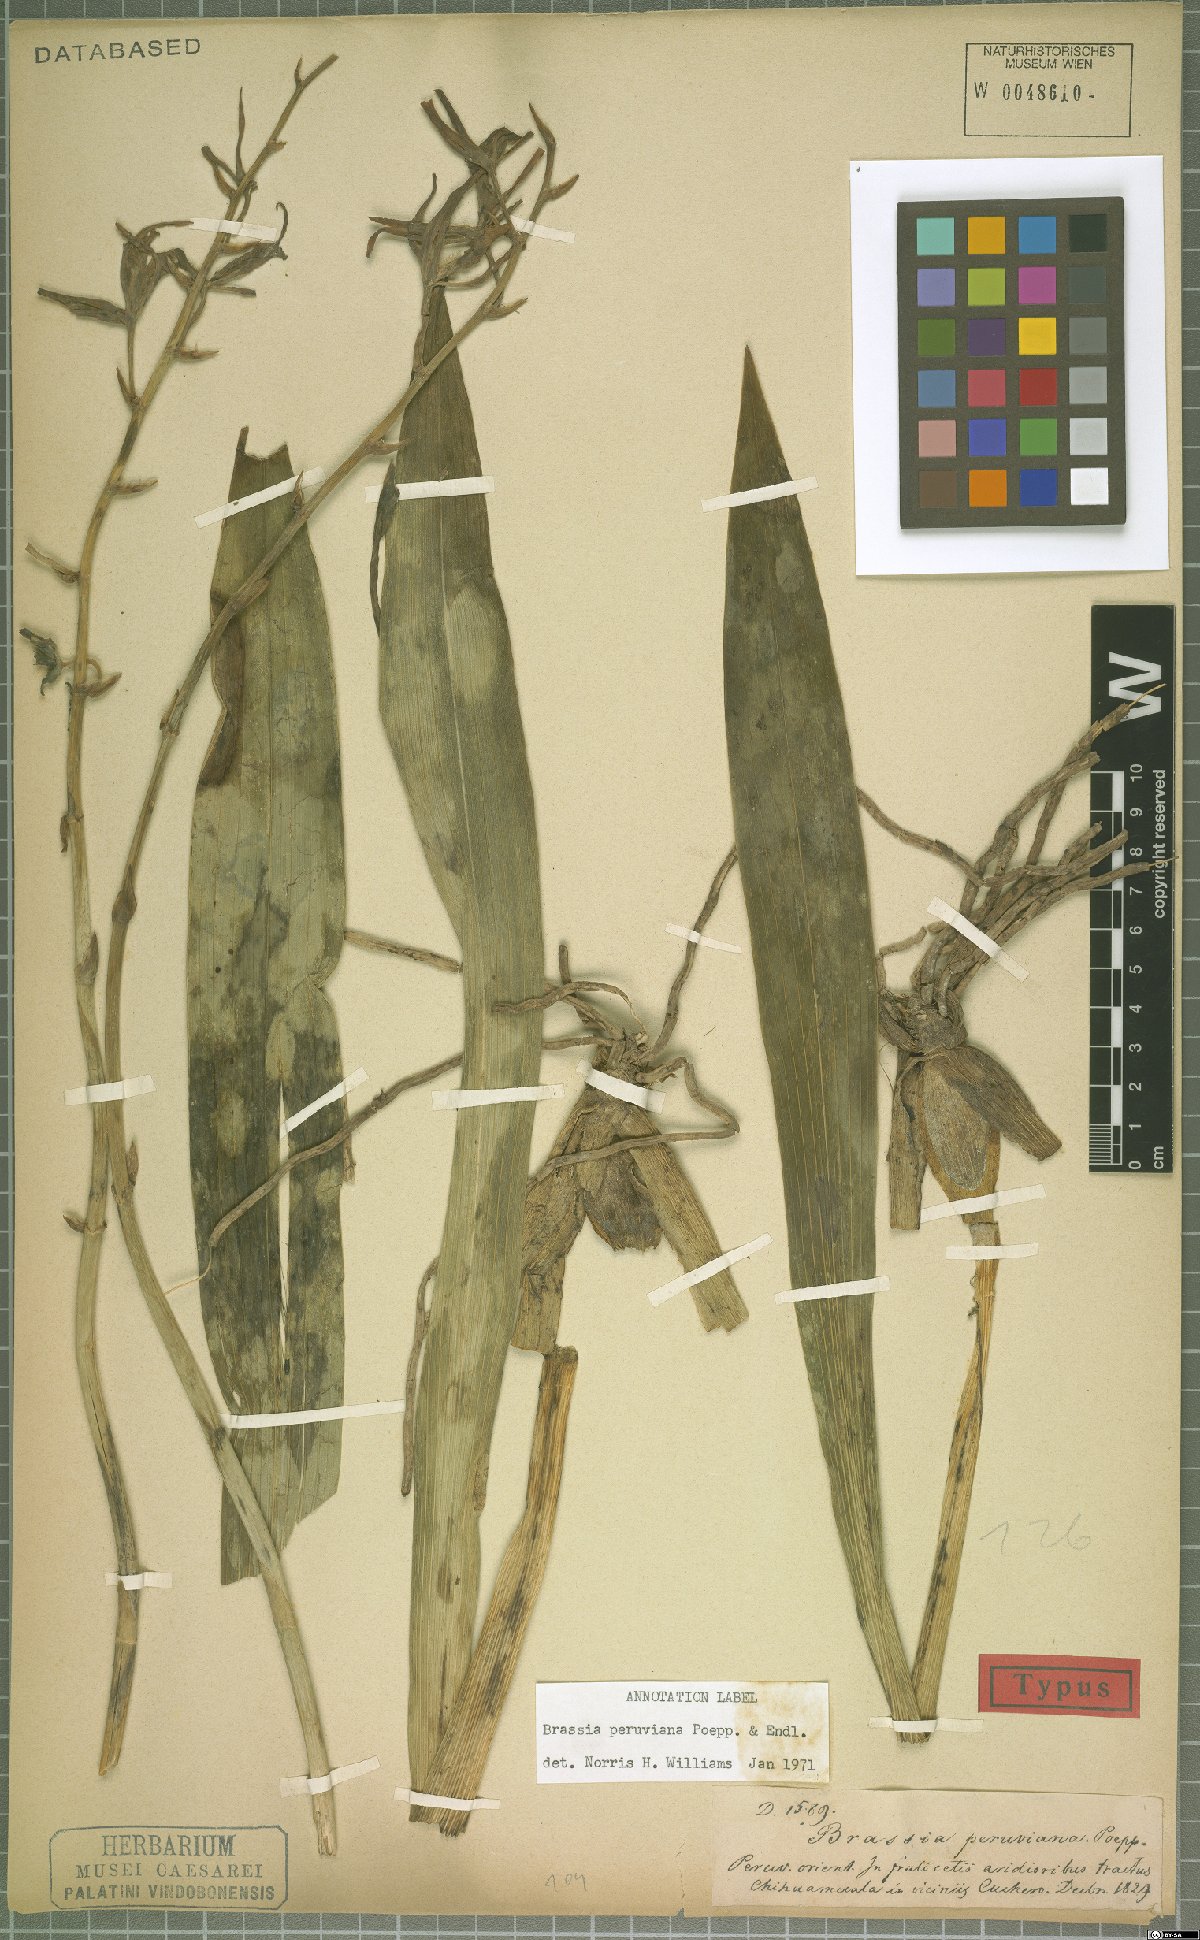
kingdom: Plantae
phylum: Tracheophyta
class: Liliopsida
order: Asparagales
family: Orchidaceae
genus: Brassia
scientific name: Brassia peruviana
